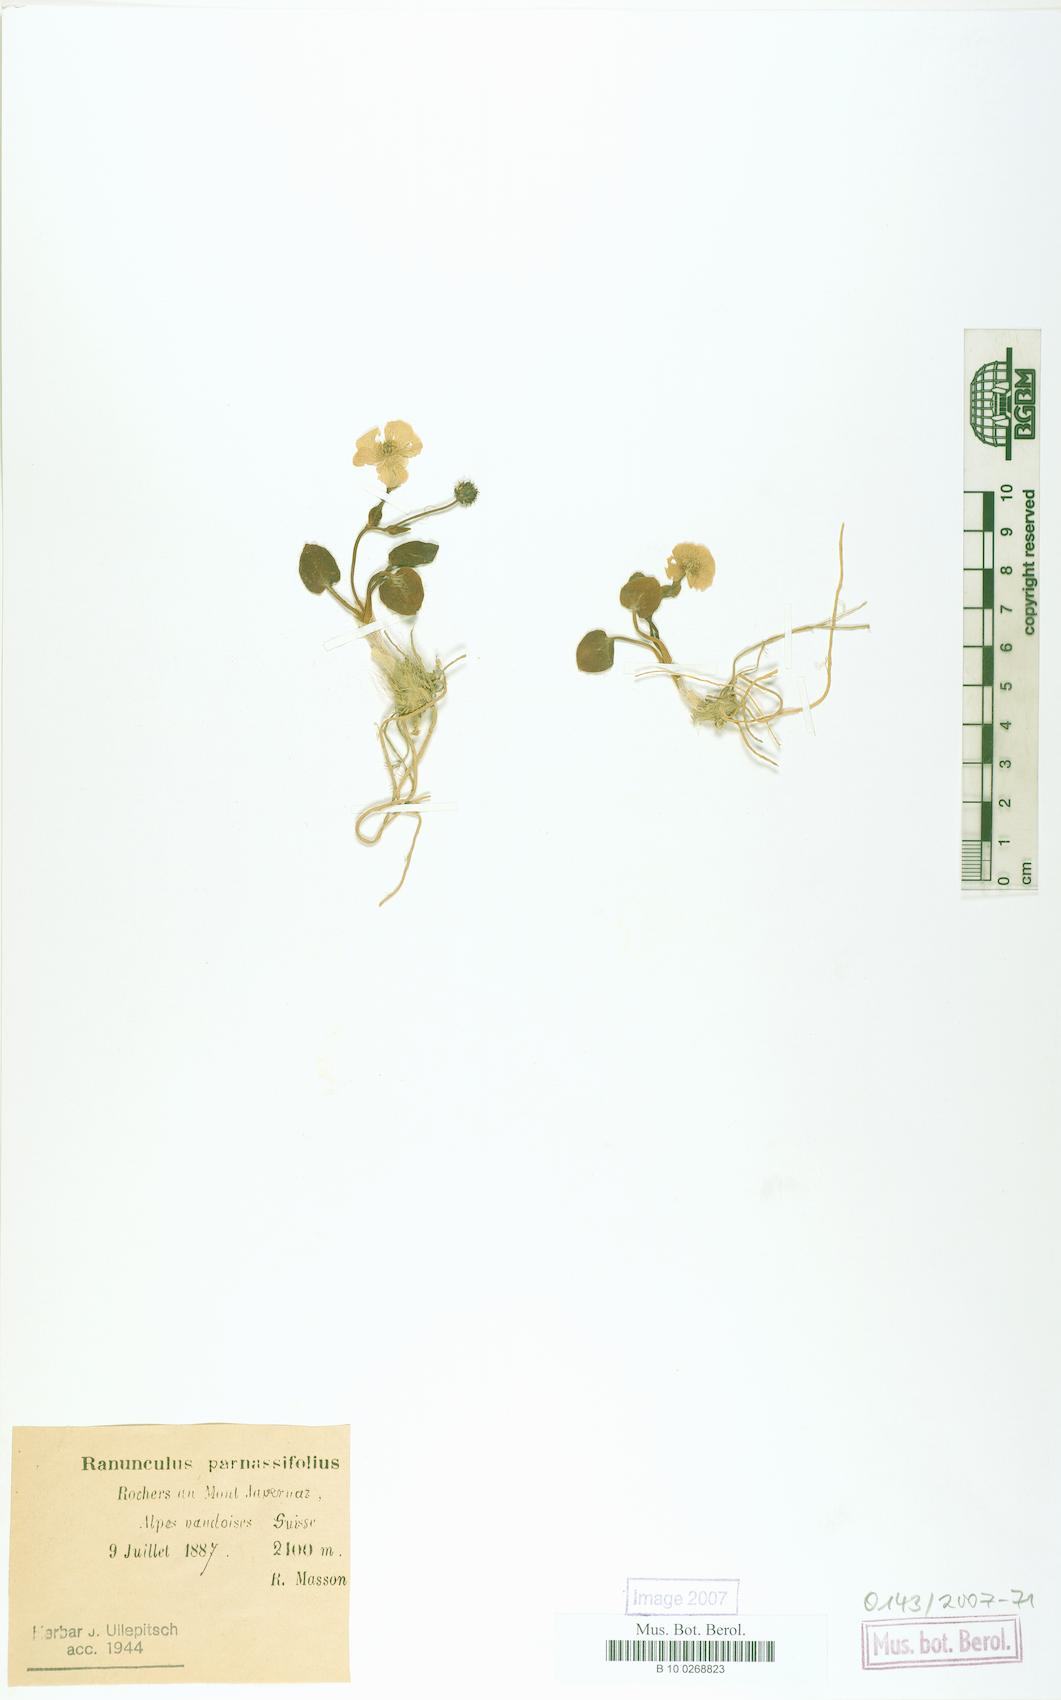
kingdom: Plantae
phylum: Tracheophyta
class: Magnoliopsida
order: Ranunculales
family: Ranunculaceae
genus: Ranunculus
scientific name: Ranunculus parnassiifolius
